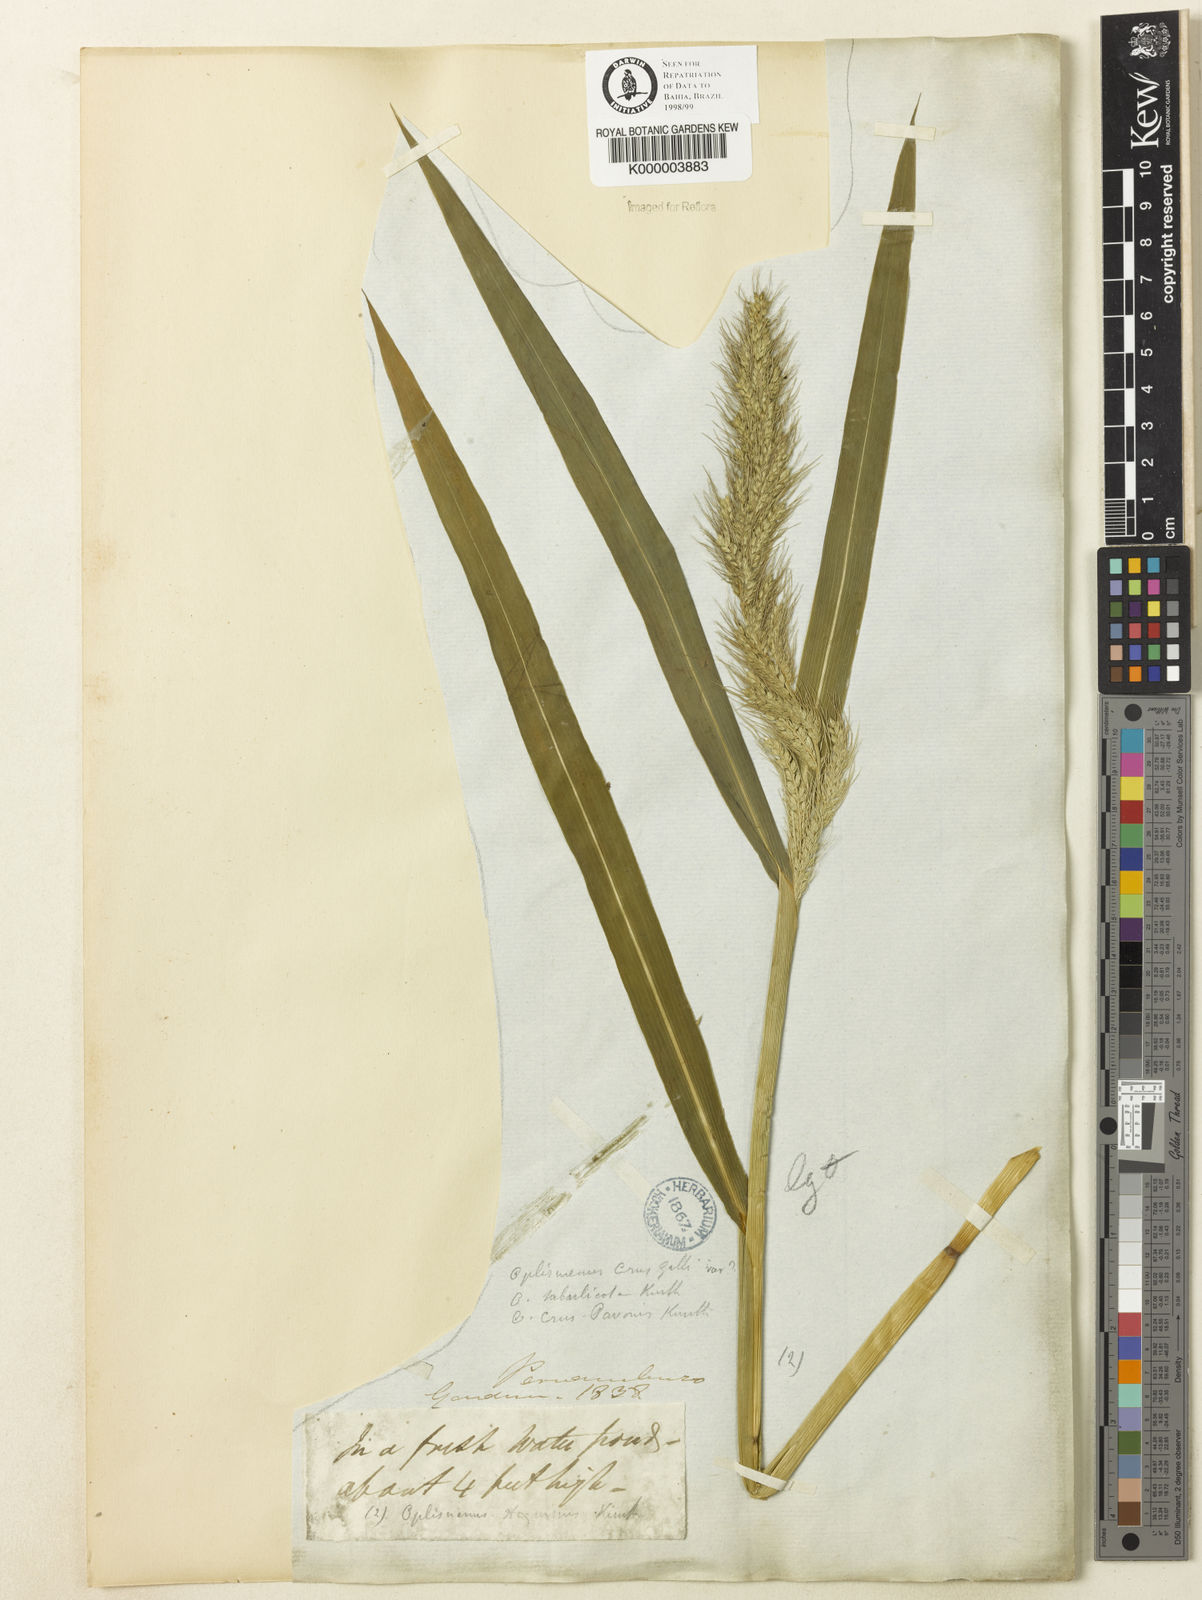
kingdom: Plantae
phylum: Tracheophyta
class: Liliopsida
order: Poales
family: Poaceae
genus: Echinochloa
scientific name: Echinochloa
